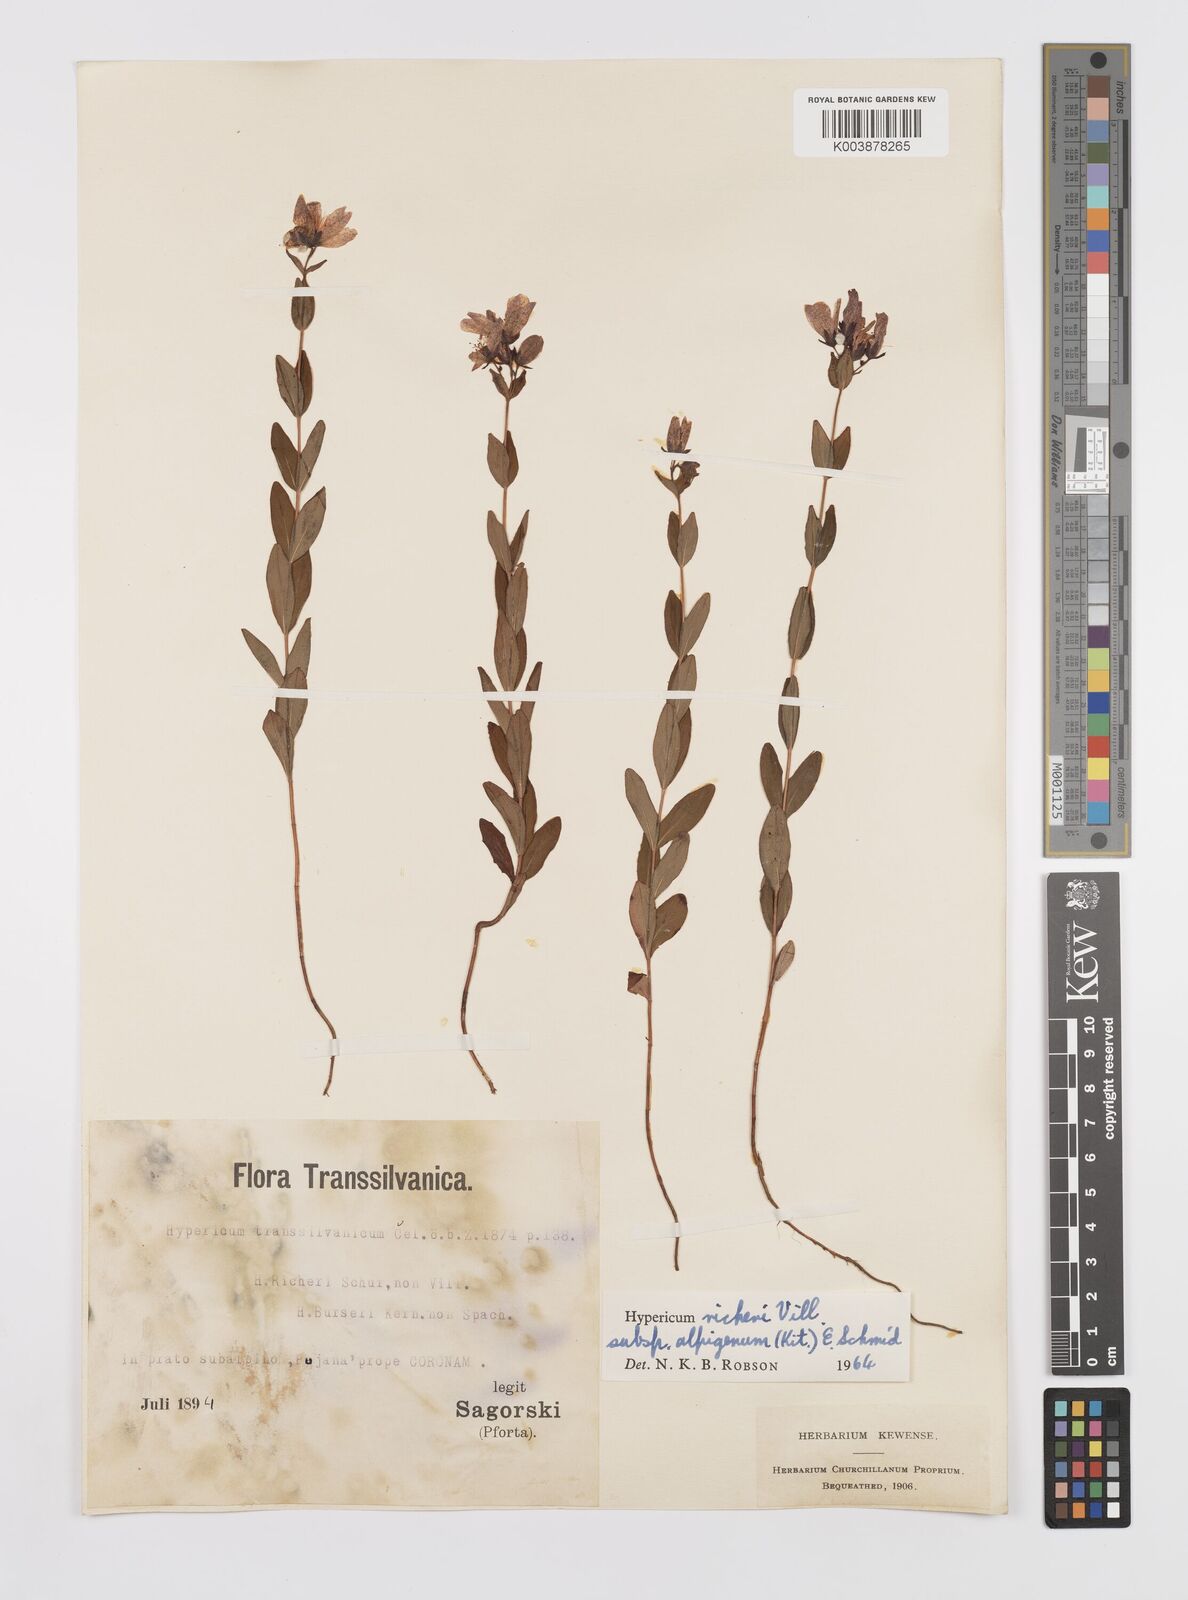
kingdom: Plantae
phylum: Tracheophyta
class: Magnoliopsida
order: Malpighiales
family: Hypericaceae
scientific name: Hypericaceae
